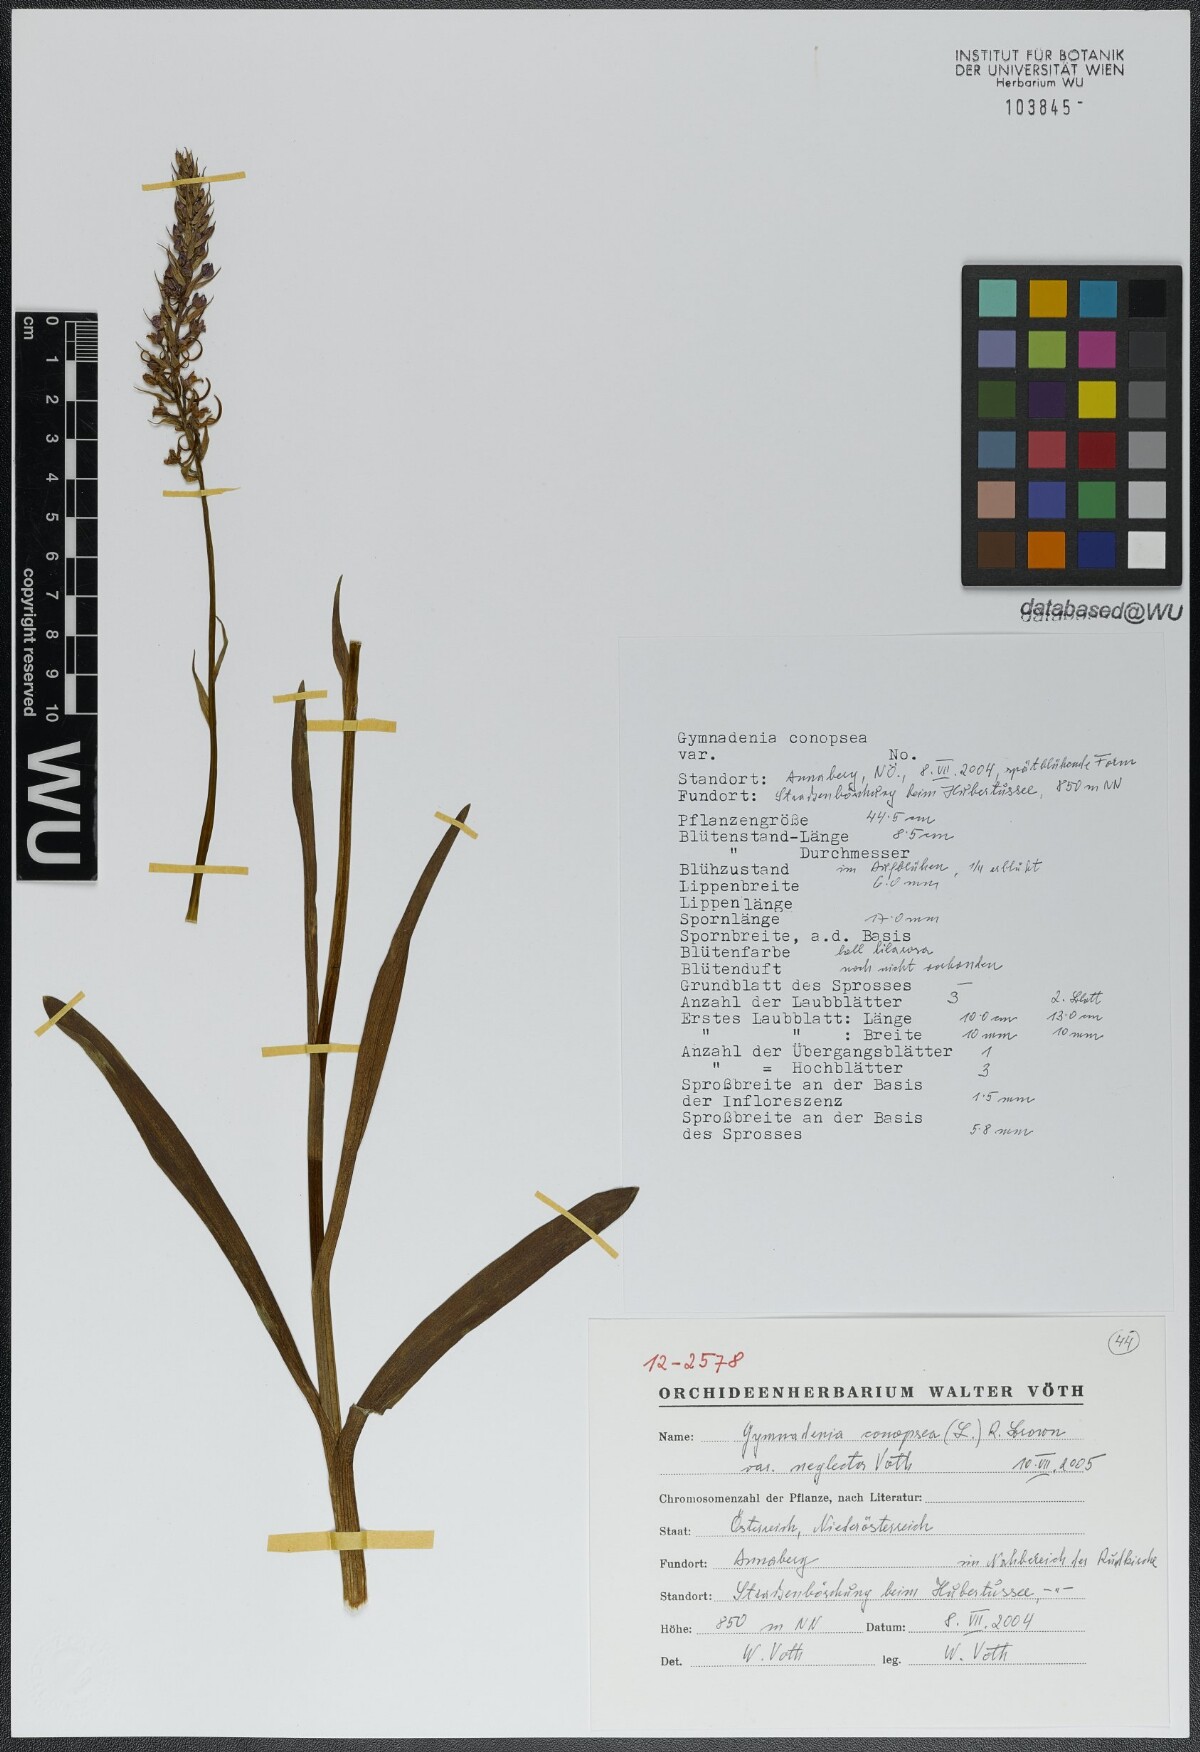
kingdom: Plantae
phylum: Tracheophyta
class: Liliopsida
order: Asparagales
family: Orchidaceae
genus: Gymnadenia
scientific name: Gymnadenia conopsea
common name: Fragrant orchid
